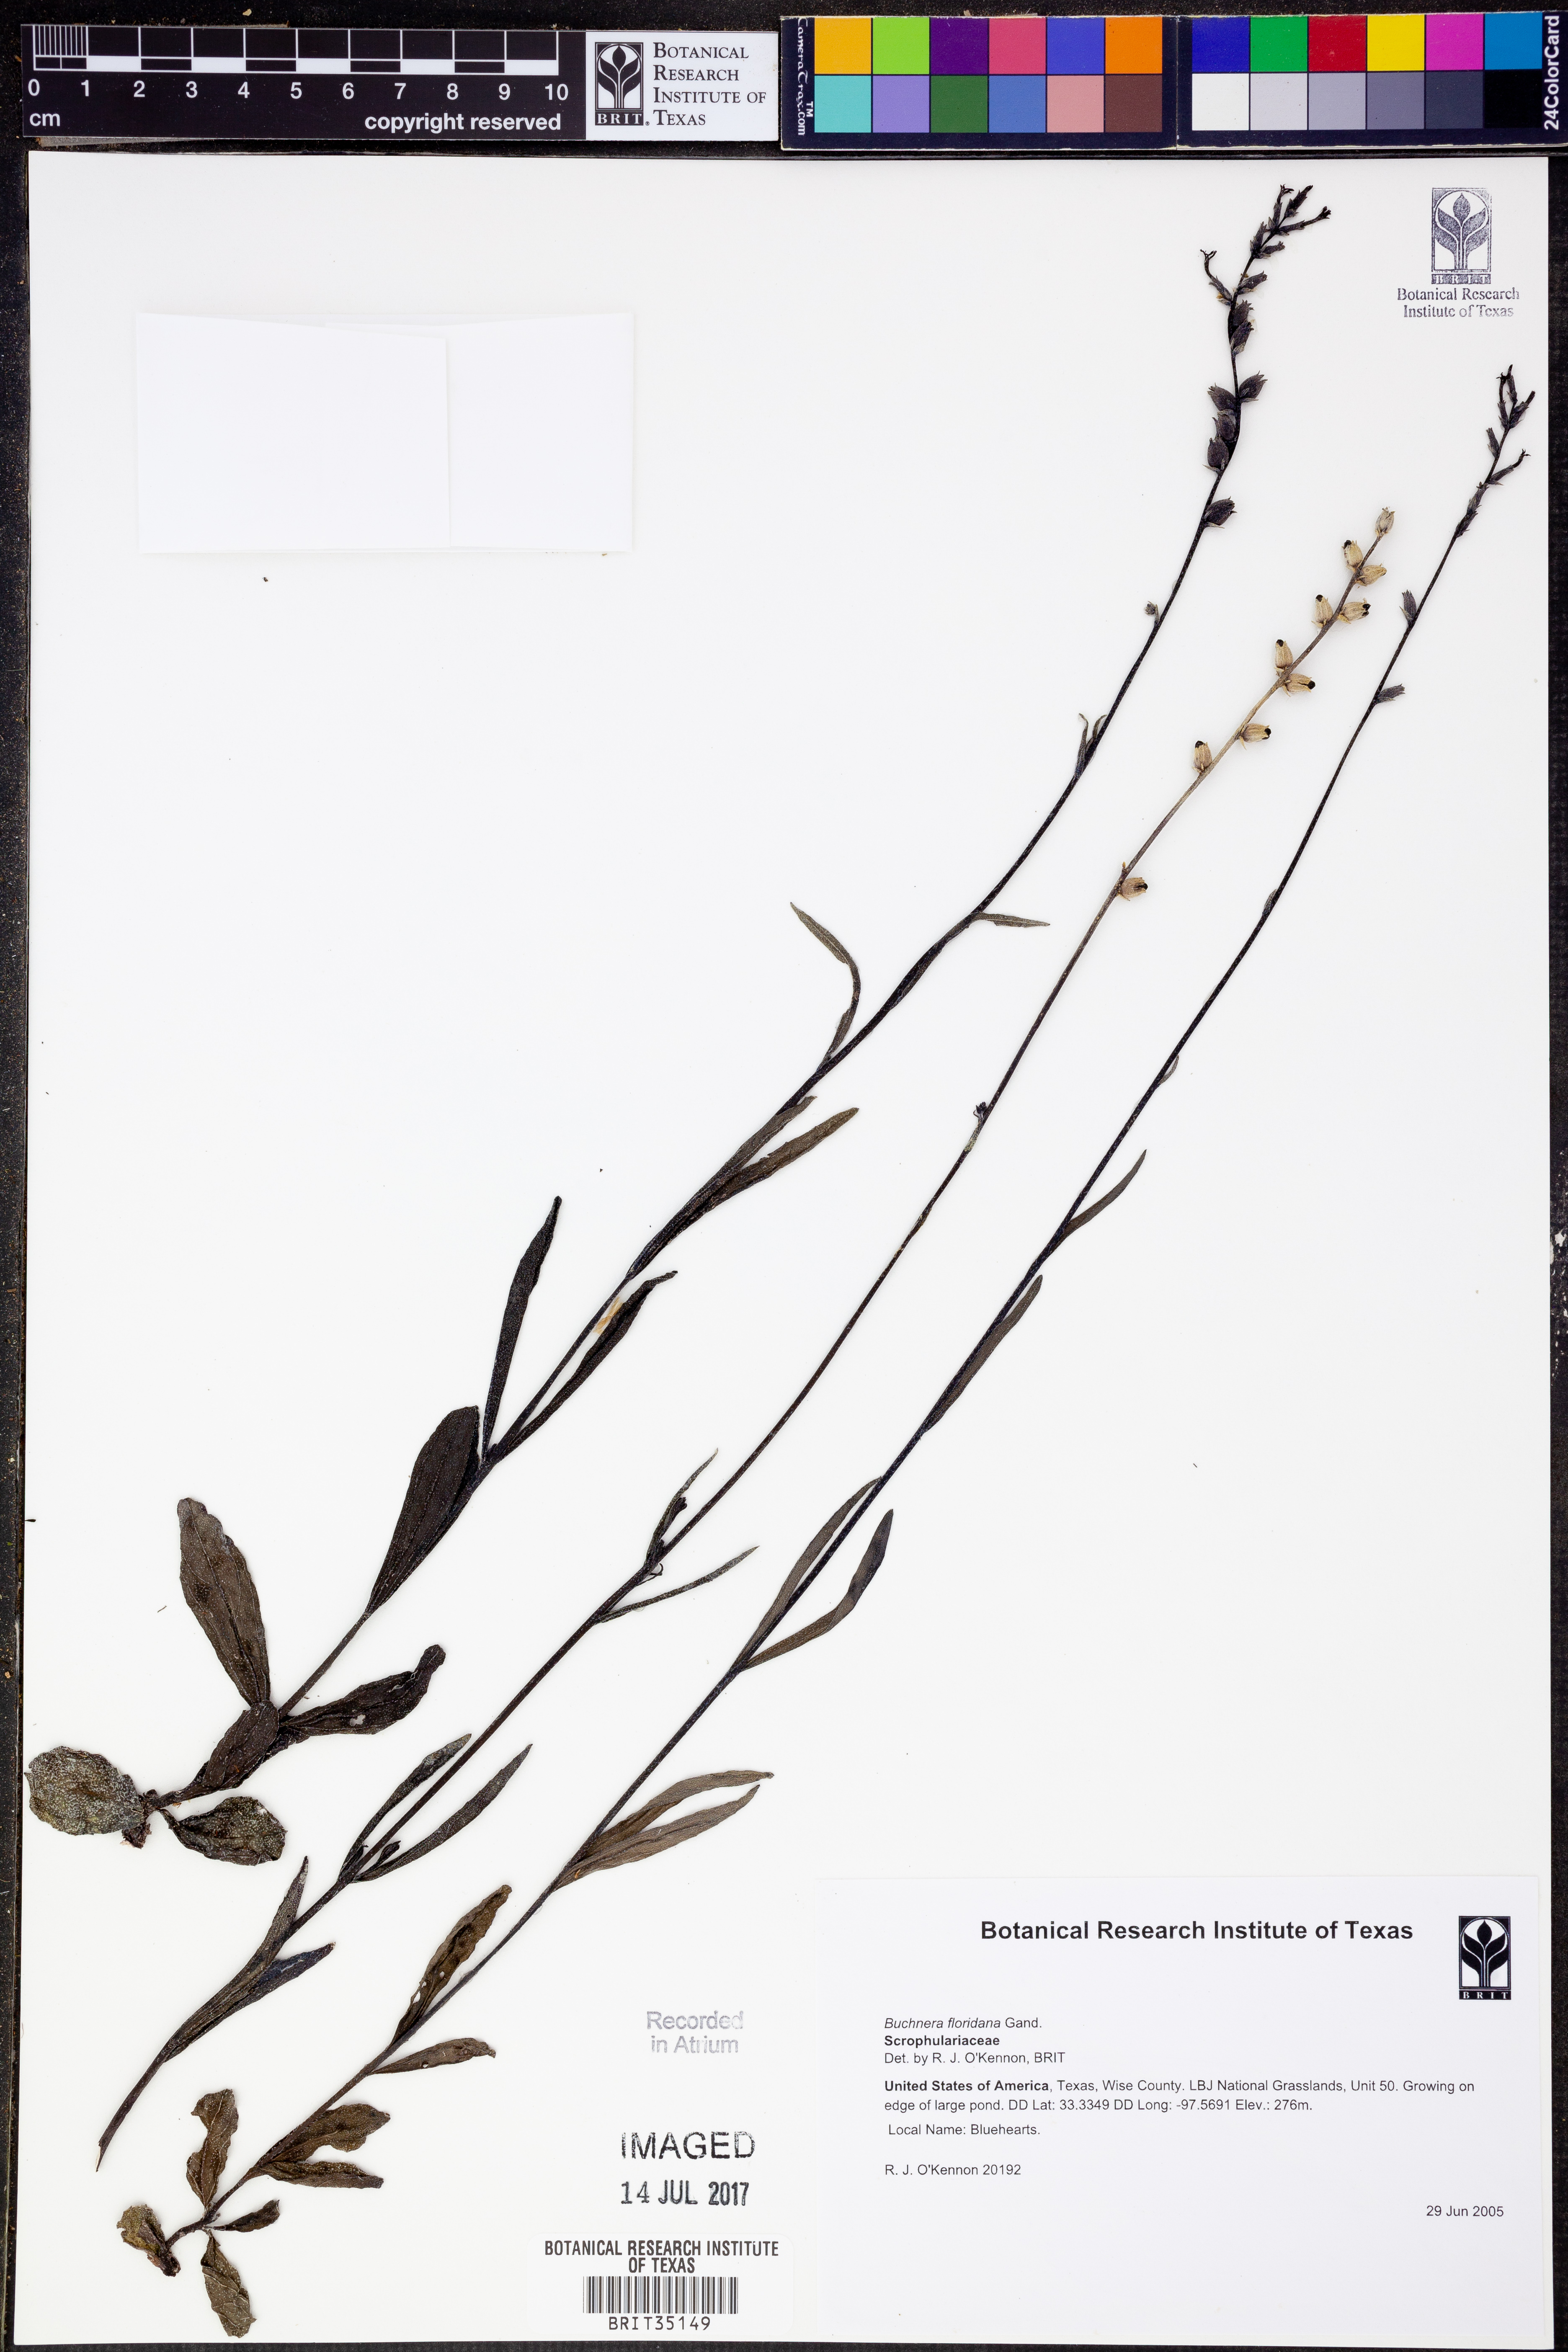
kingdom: Plantae
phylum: Tracheophyta
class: Magnoliopsida
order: Lamiales
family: Orobanchaceae
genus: Buchnera
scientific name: Buchnera floridana
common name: Florida bluehearts
